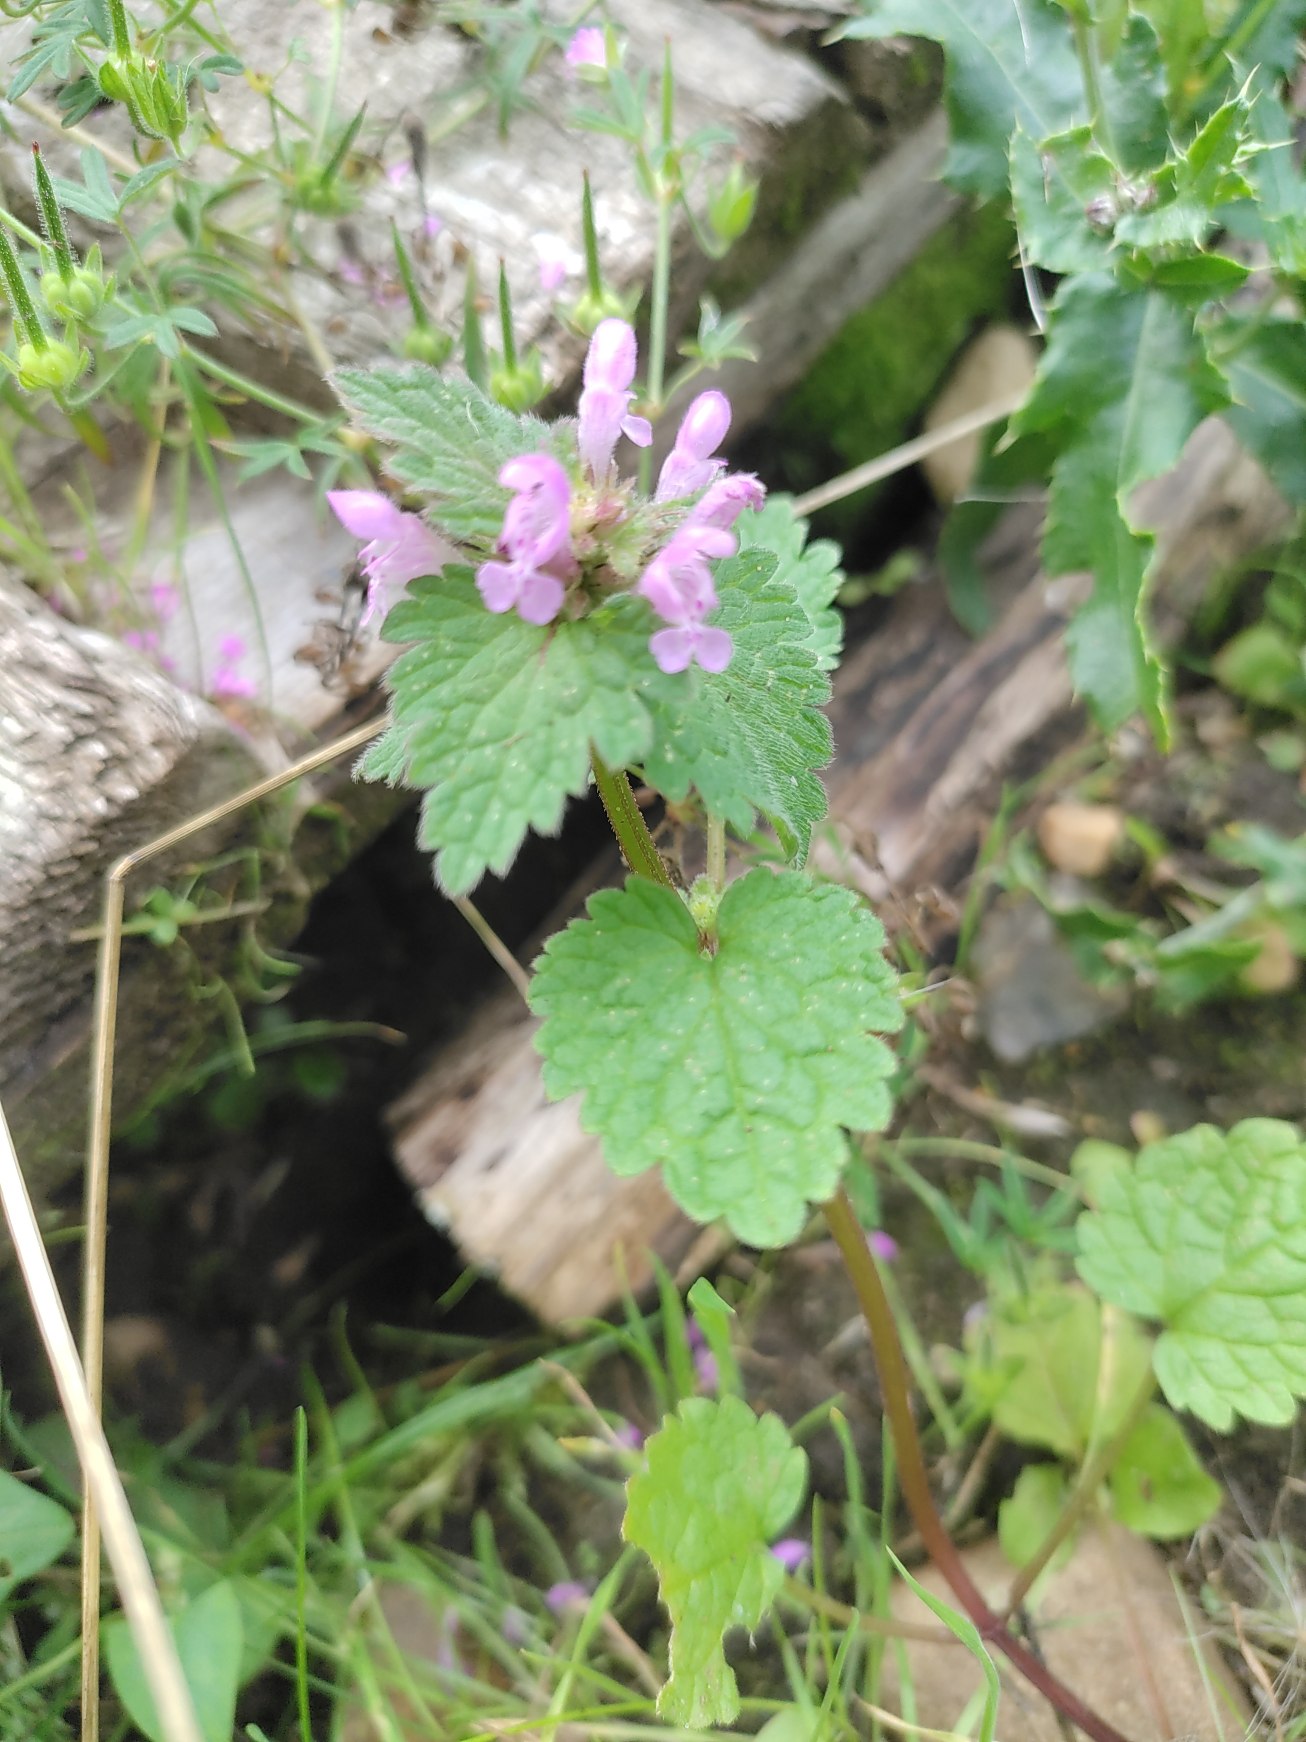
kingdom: Plantae
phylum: Tracheophyta
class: Magnoliopsida
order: Lamiales
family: Lamiaceae
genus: Lamium
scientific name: Lamium purpureum
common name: Rød tvetand
